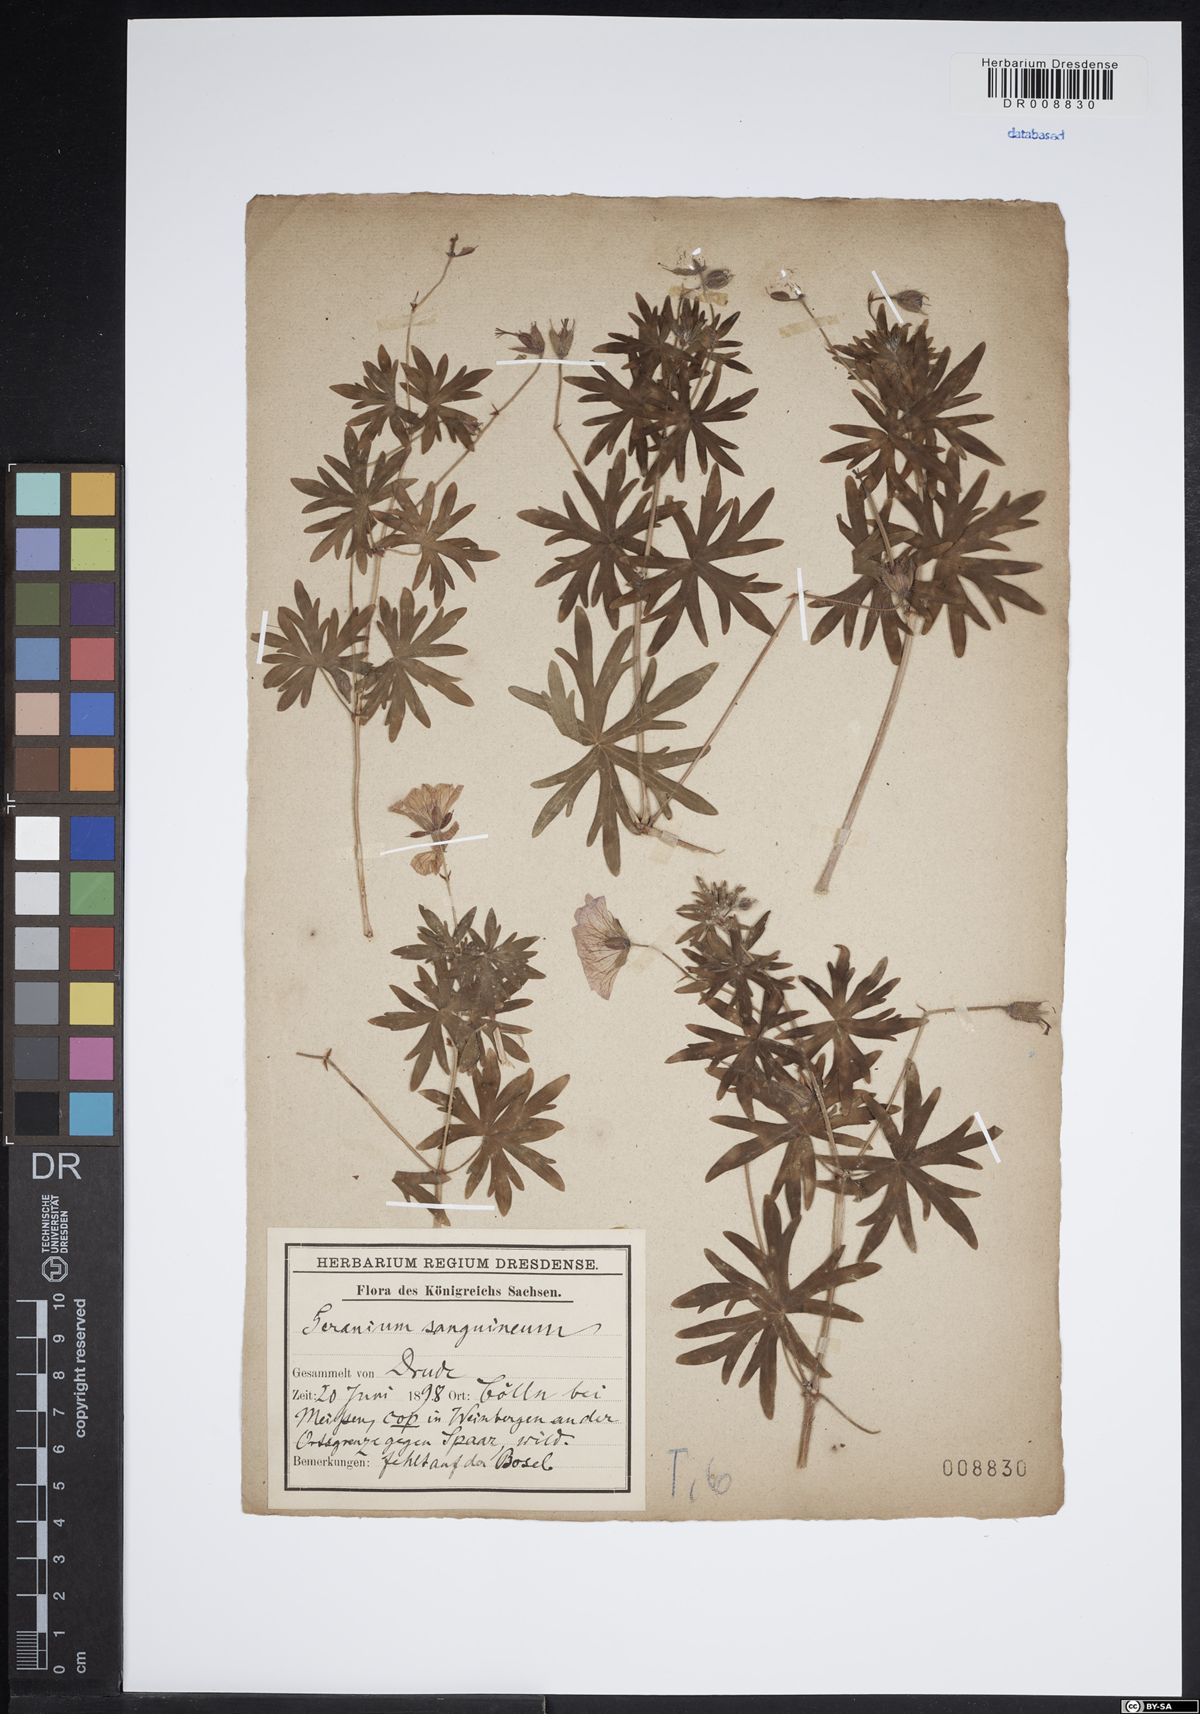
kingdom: Plantae
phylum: Tracheophyta
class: Magnoliopsida
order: Geraniales
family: Geraniaceae
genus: Geranium
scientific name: Geranium sanguineum
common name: Bloody crane's-bill
